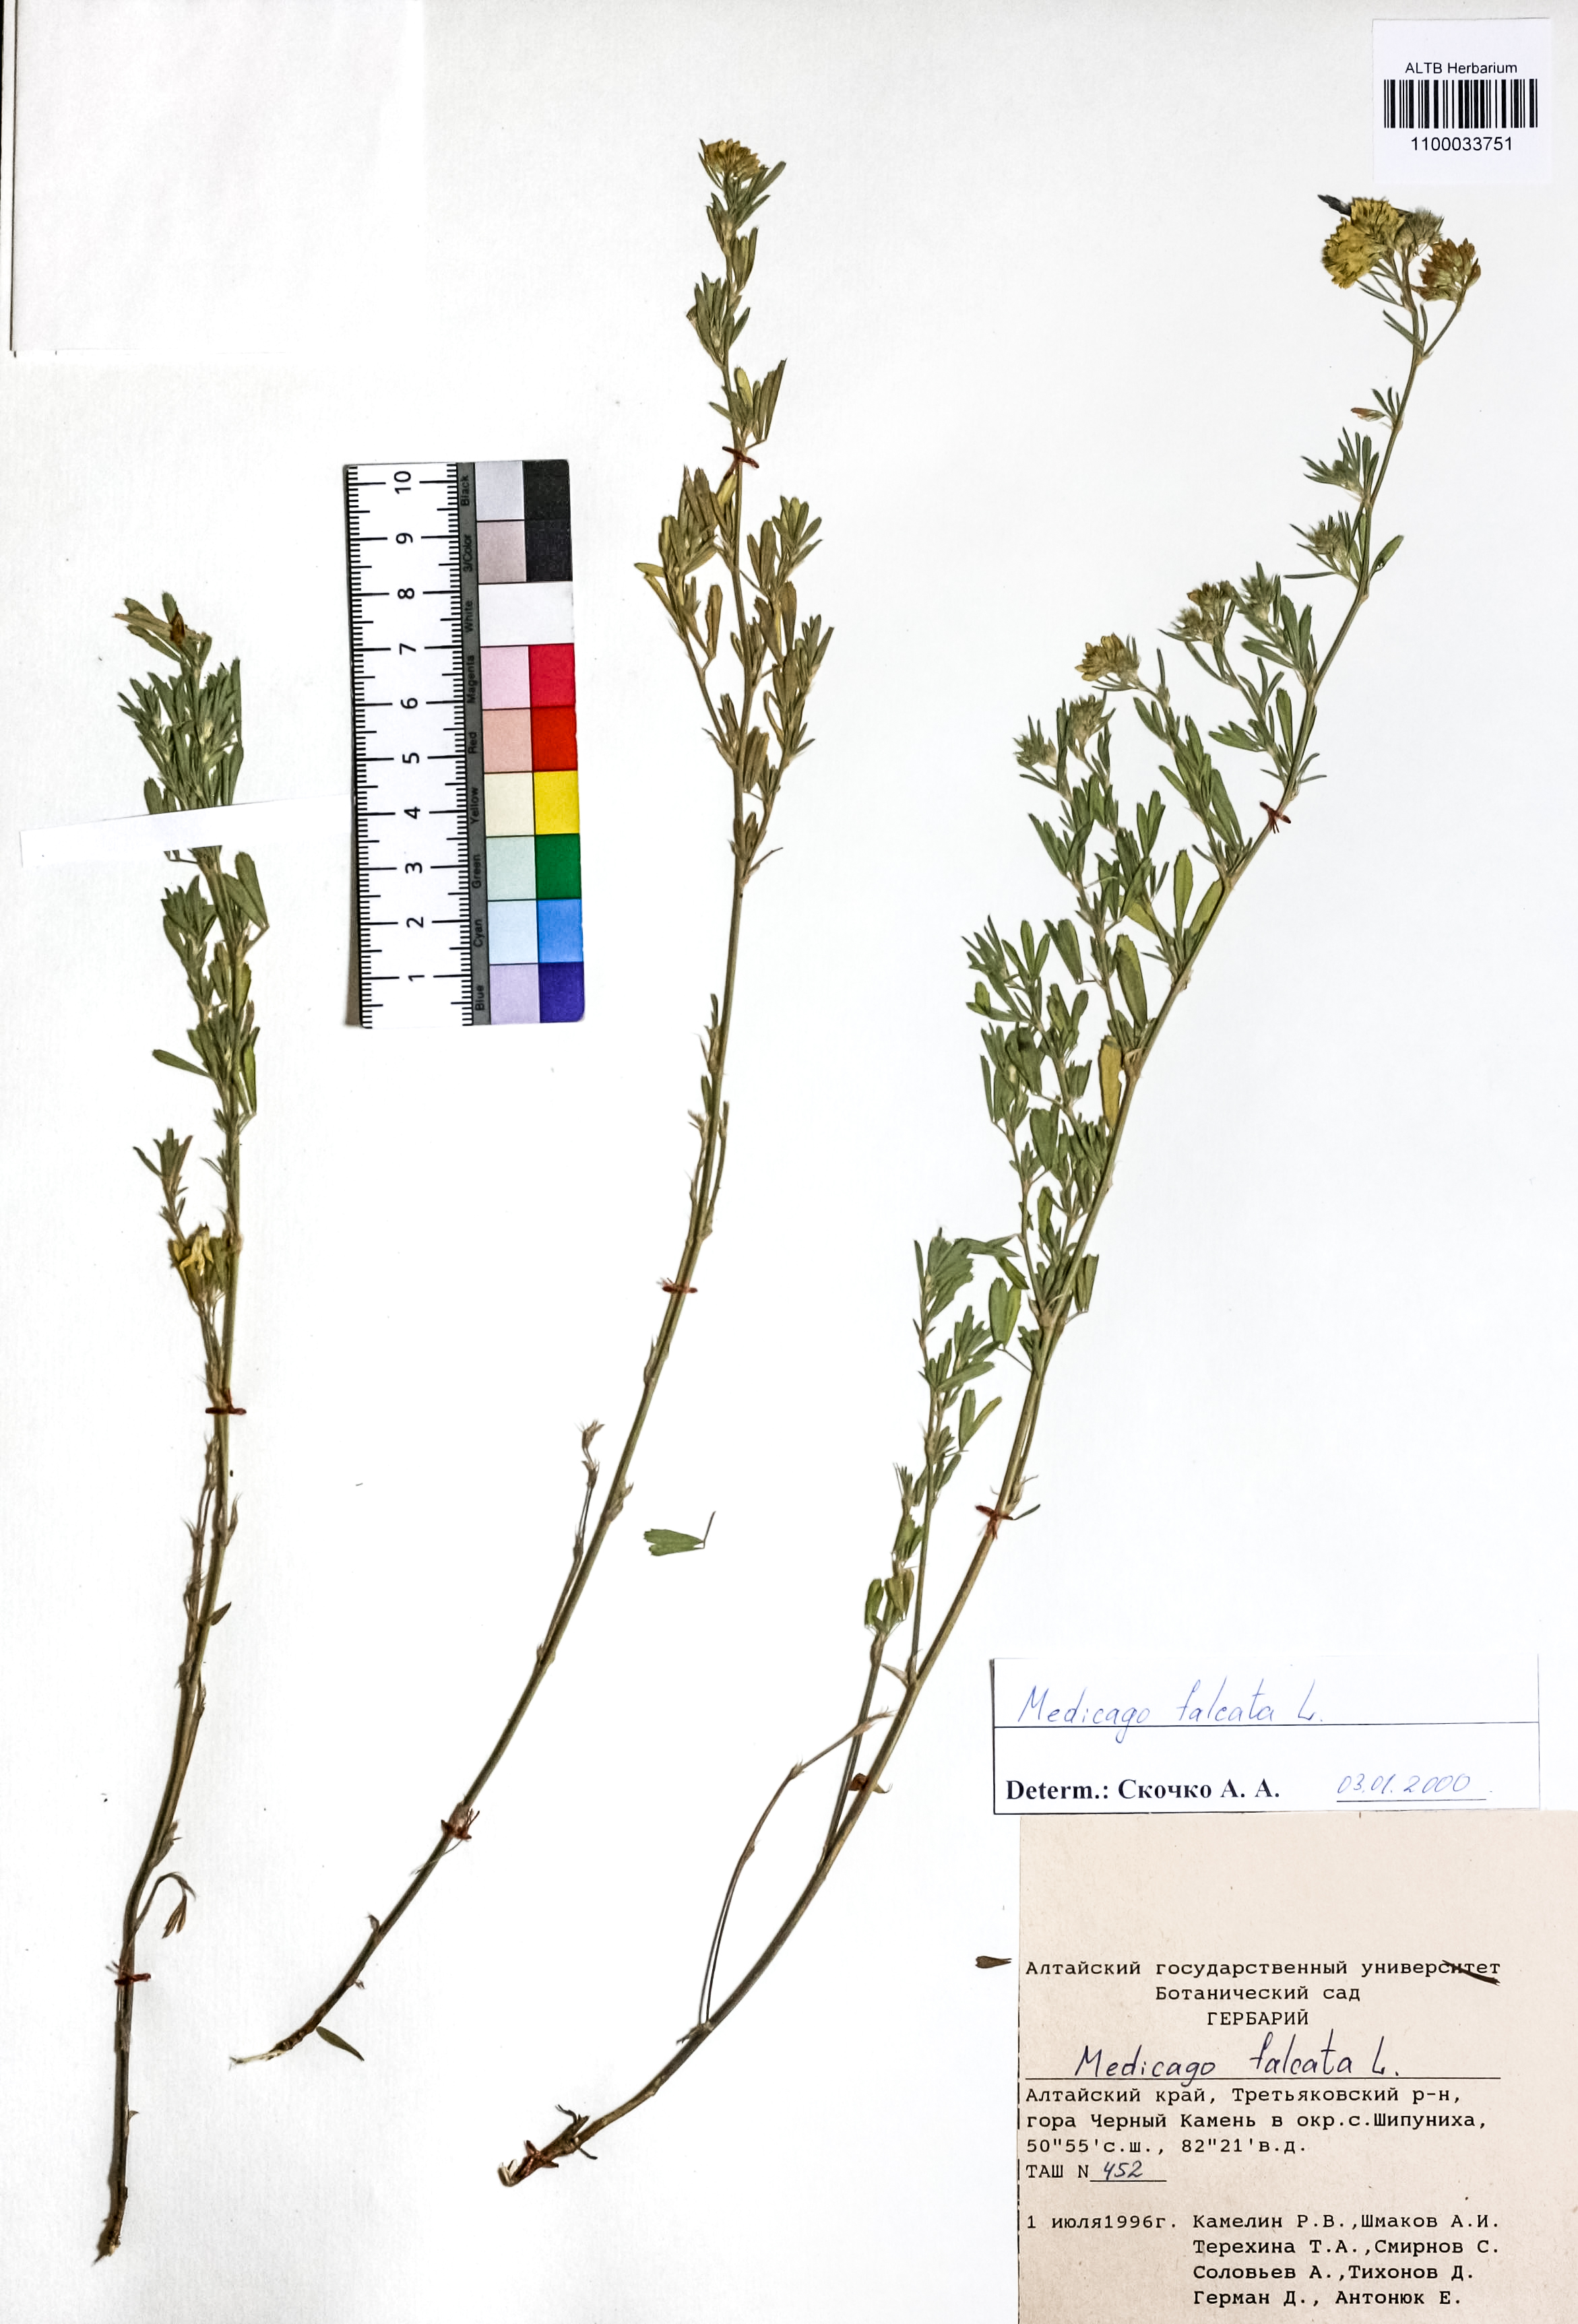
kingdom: Plantae
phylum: Tracheophyta
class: Magnoliopsida
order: Fabales
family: Fabaceae
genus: Medicago
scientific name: Medicago falcata
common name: Sickle medick
